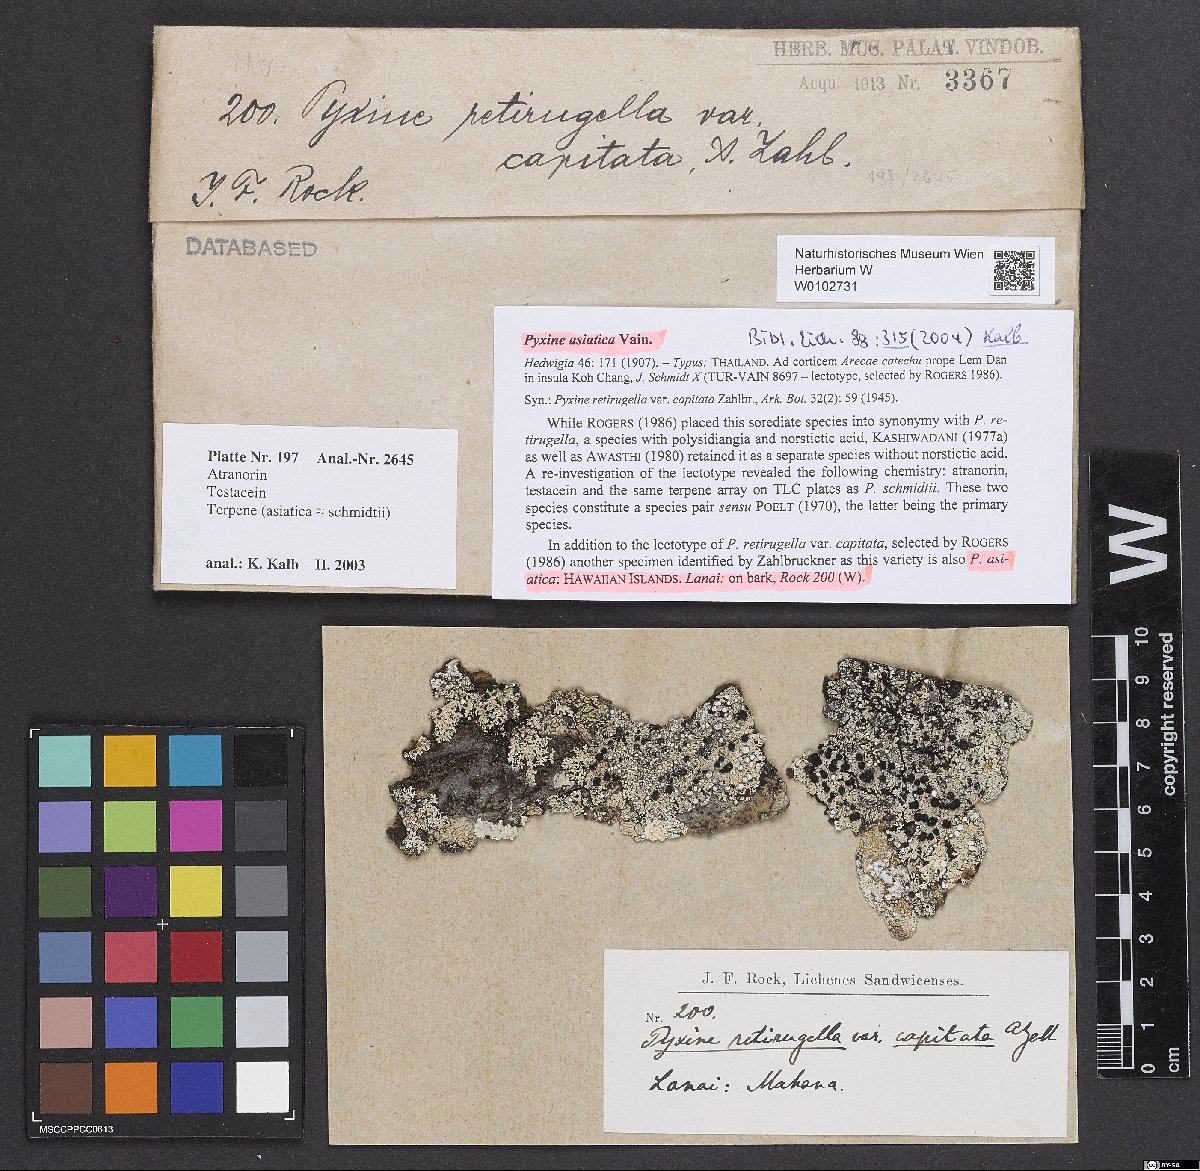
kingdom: Fungi
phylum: Ascomycota
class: Lecanoromycetes
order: Caliciales
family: Caliciaceae
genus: Pyxine
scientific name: Pyxine retirugella
